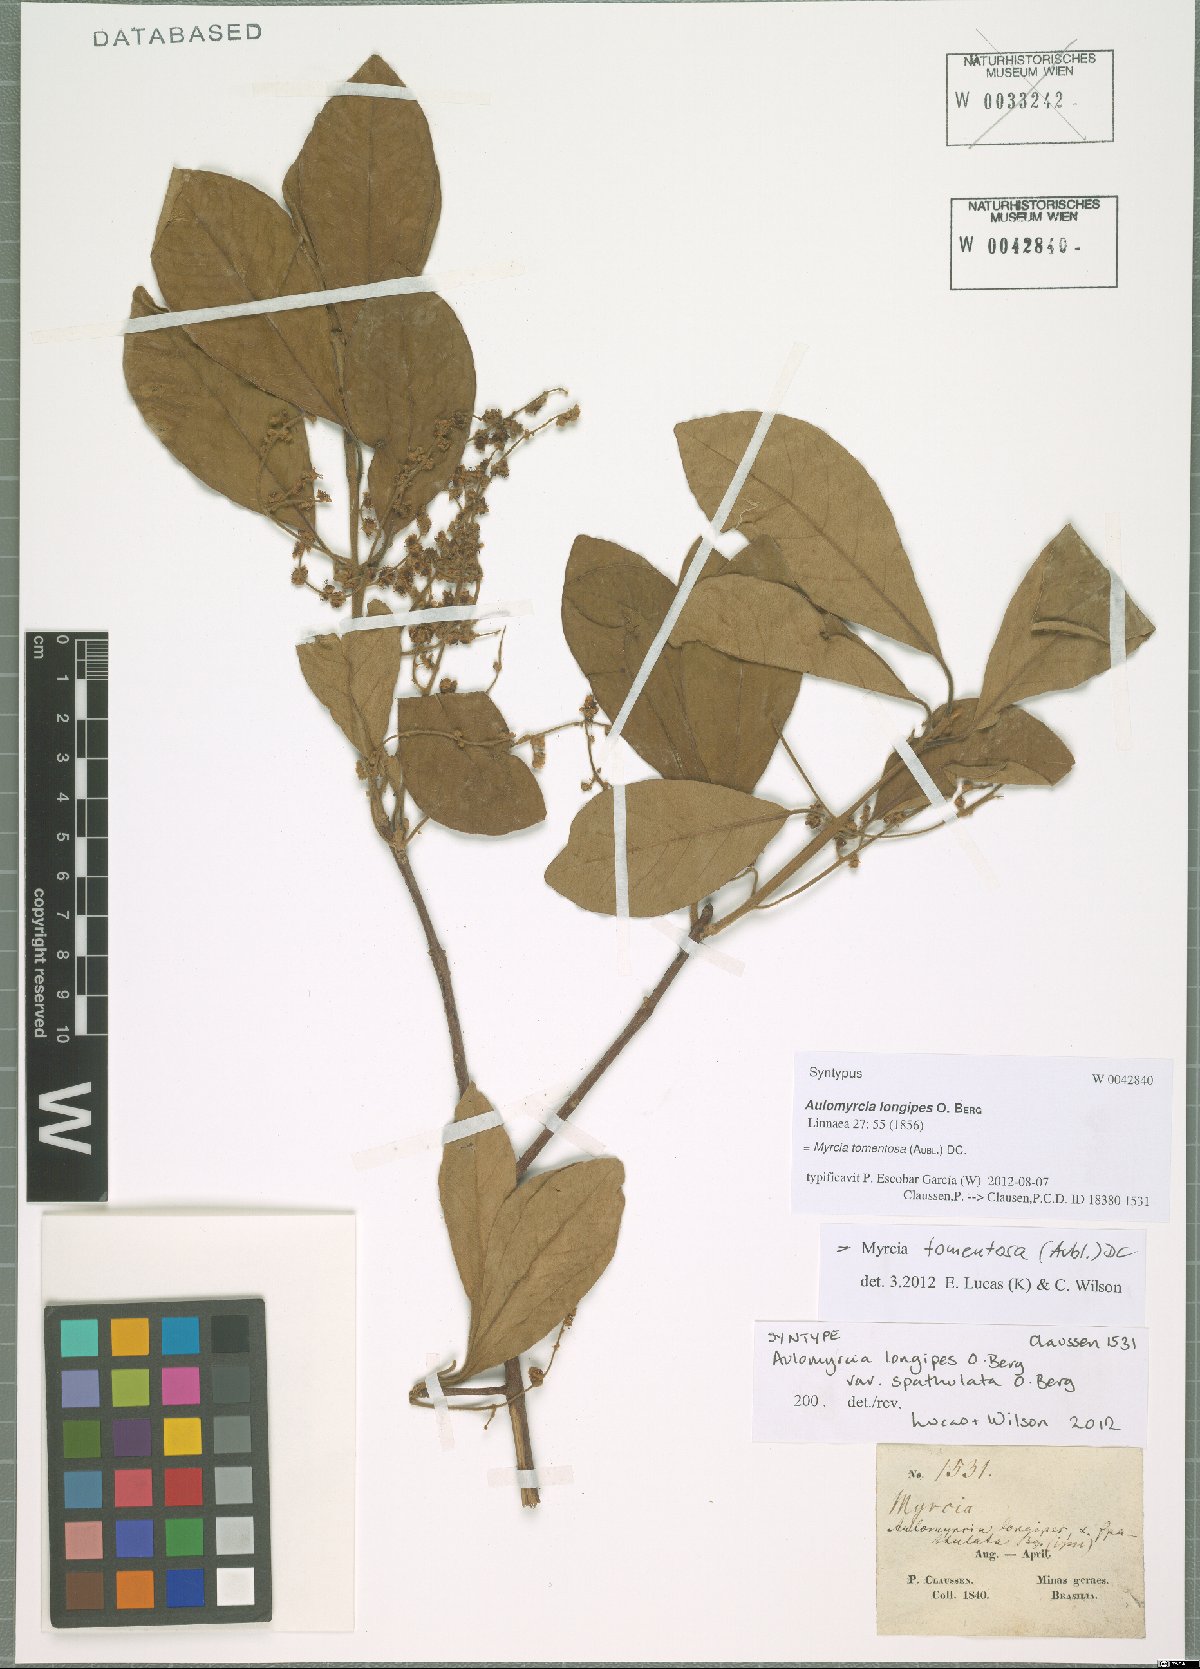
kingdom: Plantae
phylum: Tracheophyta
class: Magnoliopsida
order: Myrtales
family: Myrtaceae
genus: Myrcia
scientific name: Myrcia tomentosa
